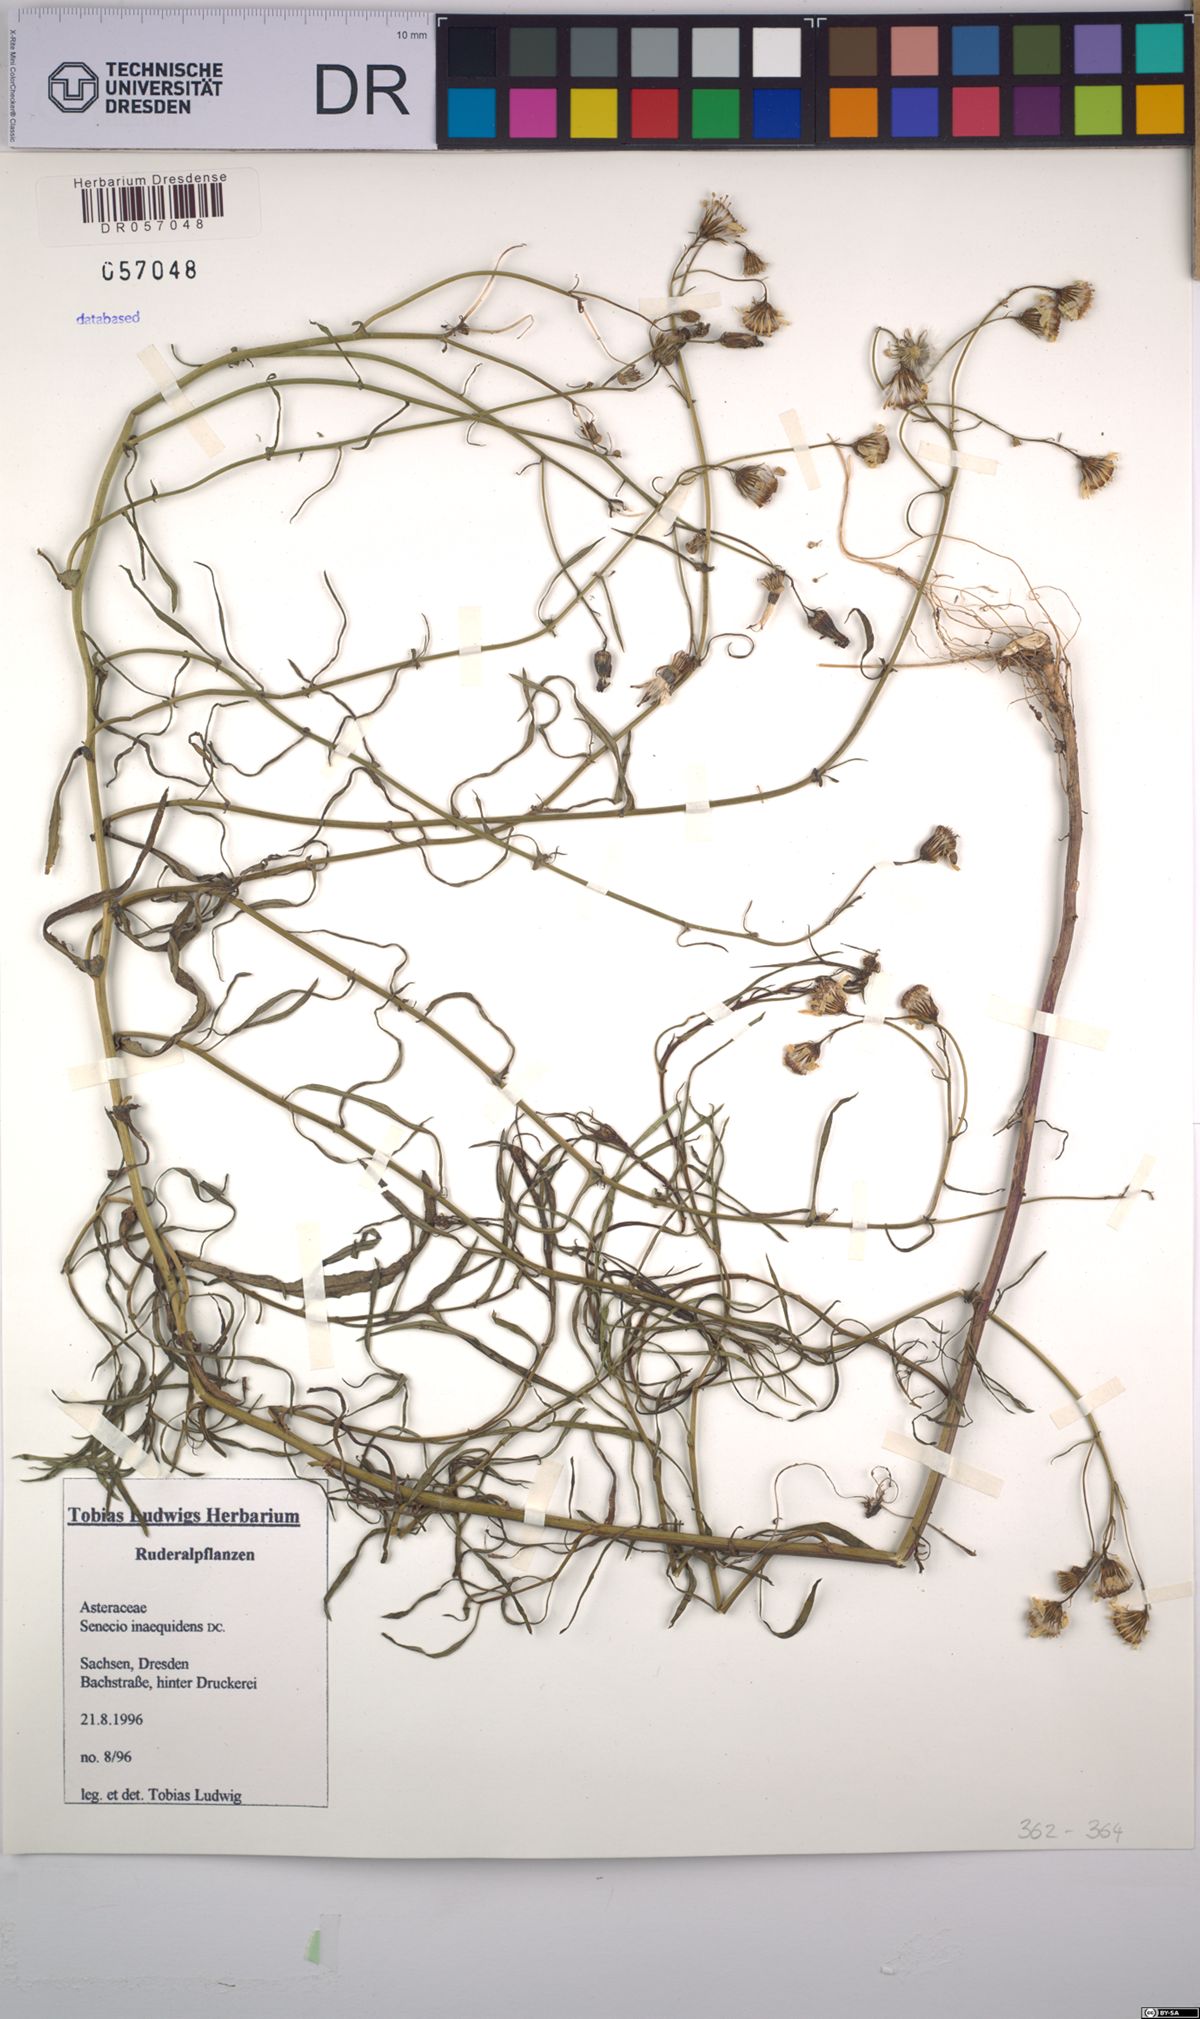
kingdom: Plantae
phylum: Tracheophyta
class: Magnoliopsida
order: Asterales
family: Asteraceae
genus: Senecio
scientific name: Senecio inaequidens
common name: Narrow-leaved ragwort
